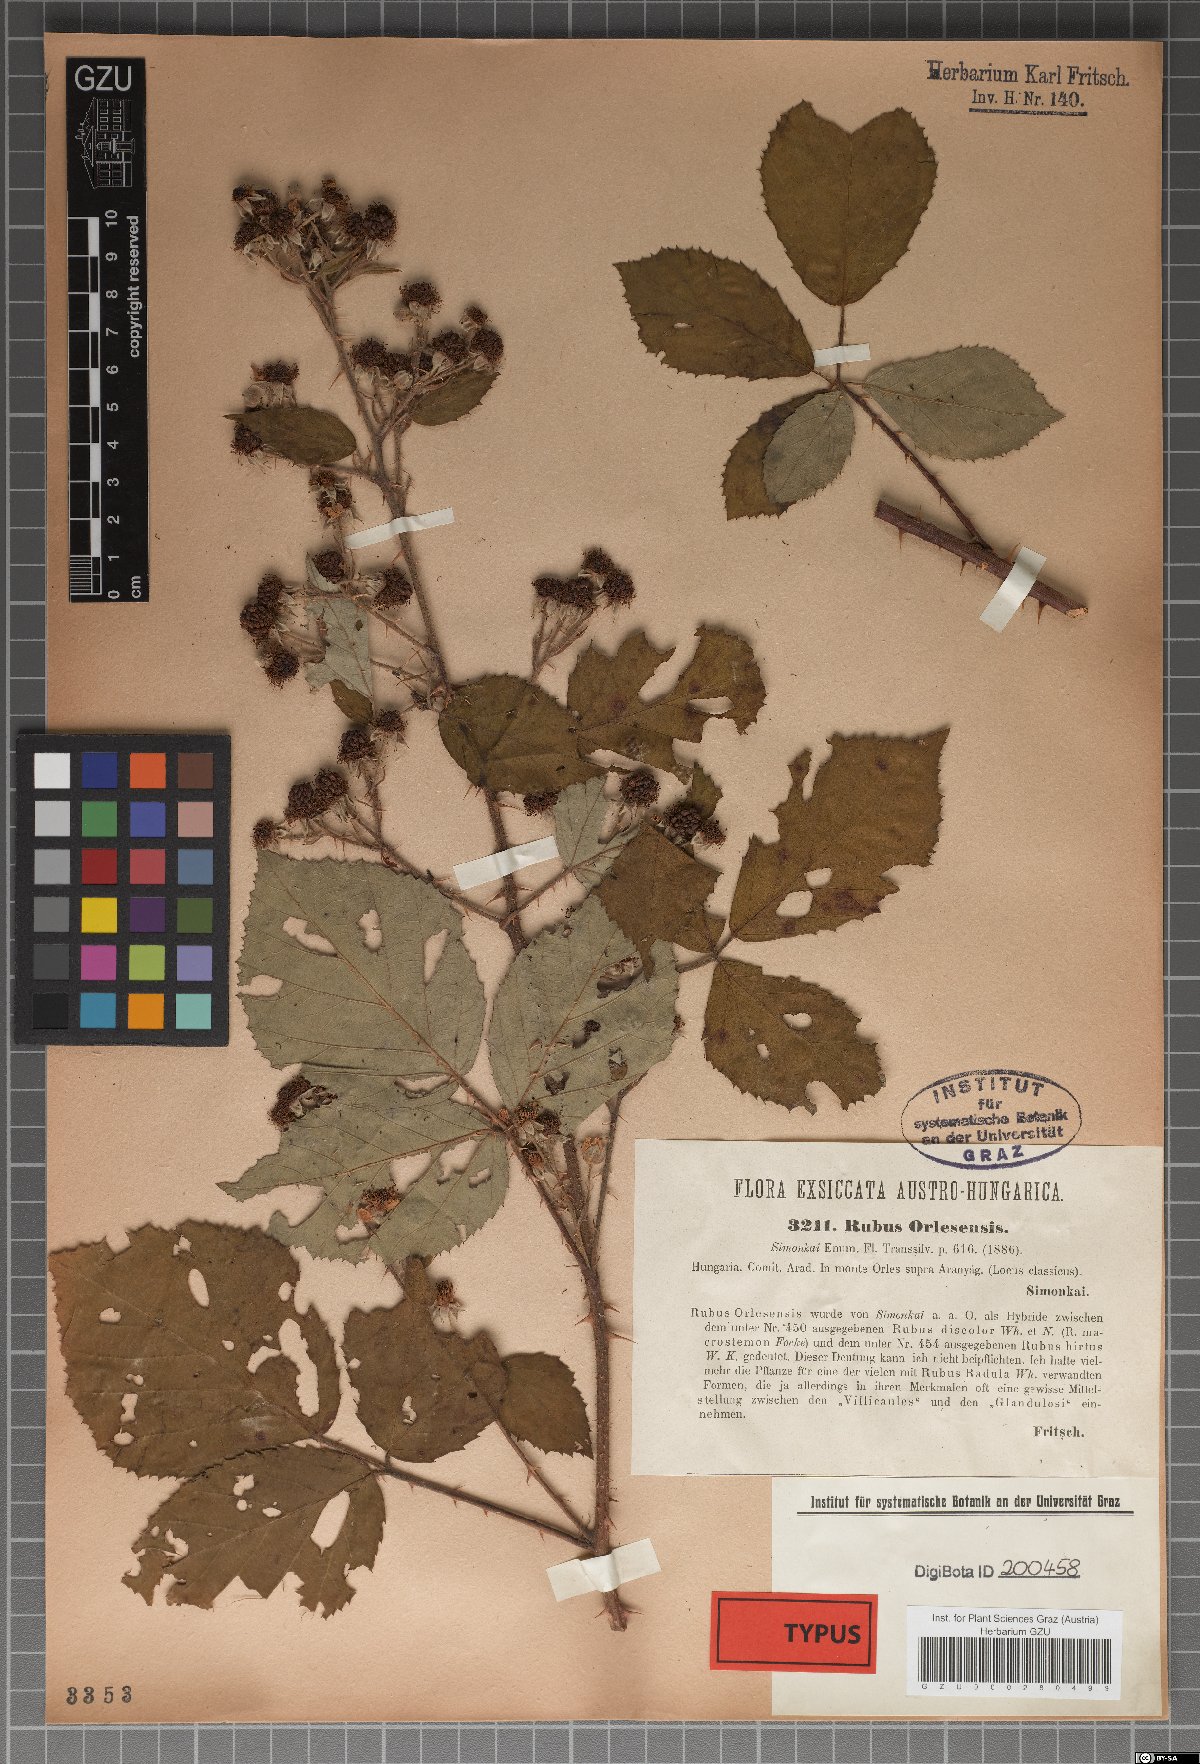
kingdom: Plantae
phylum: Tracheophyta
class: Magnoliopsida
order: Rosales
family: Rosaceae
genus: Rubus
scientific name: Rubus radula
